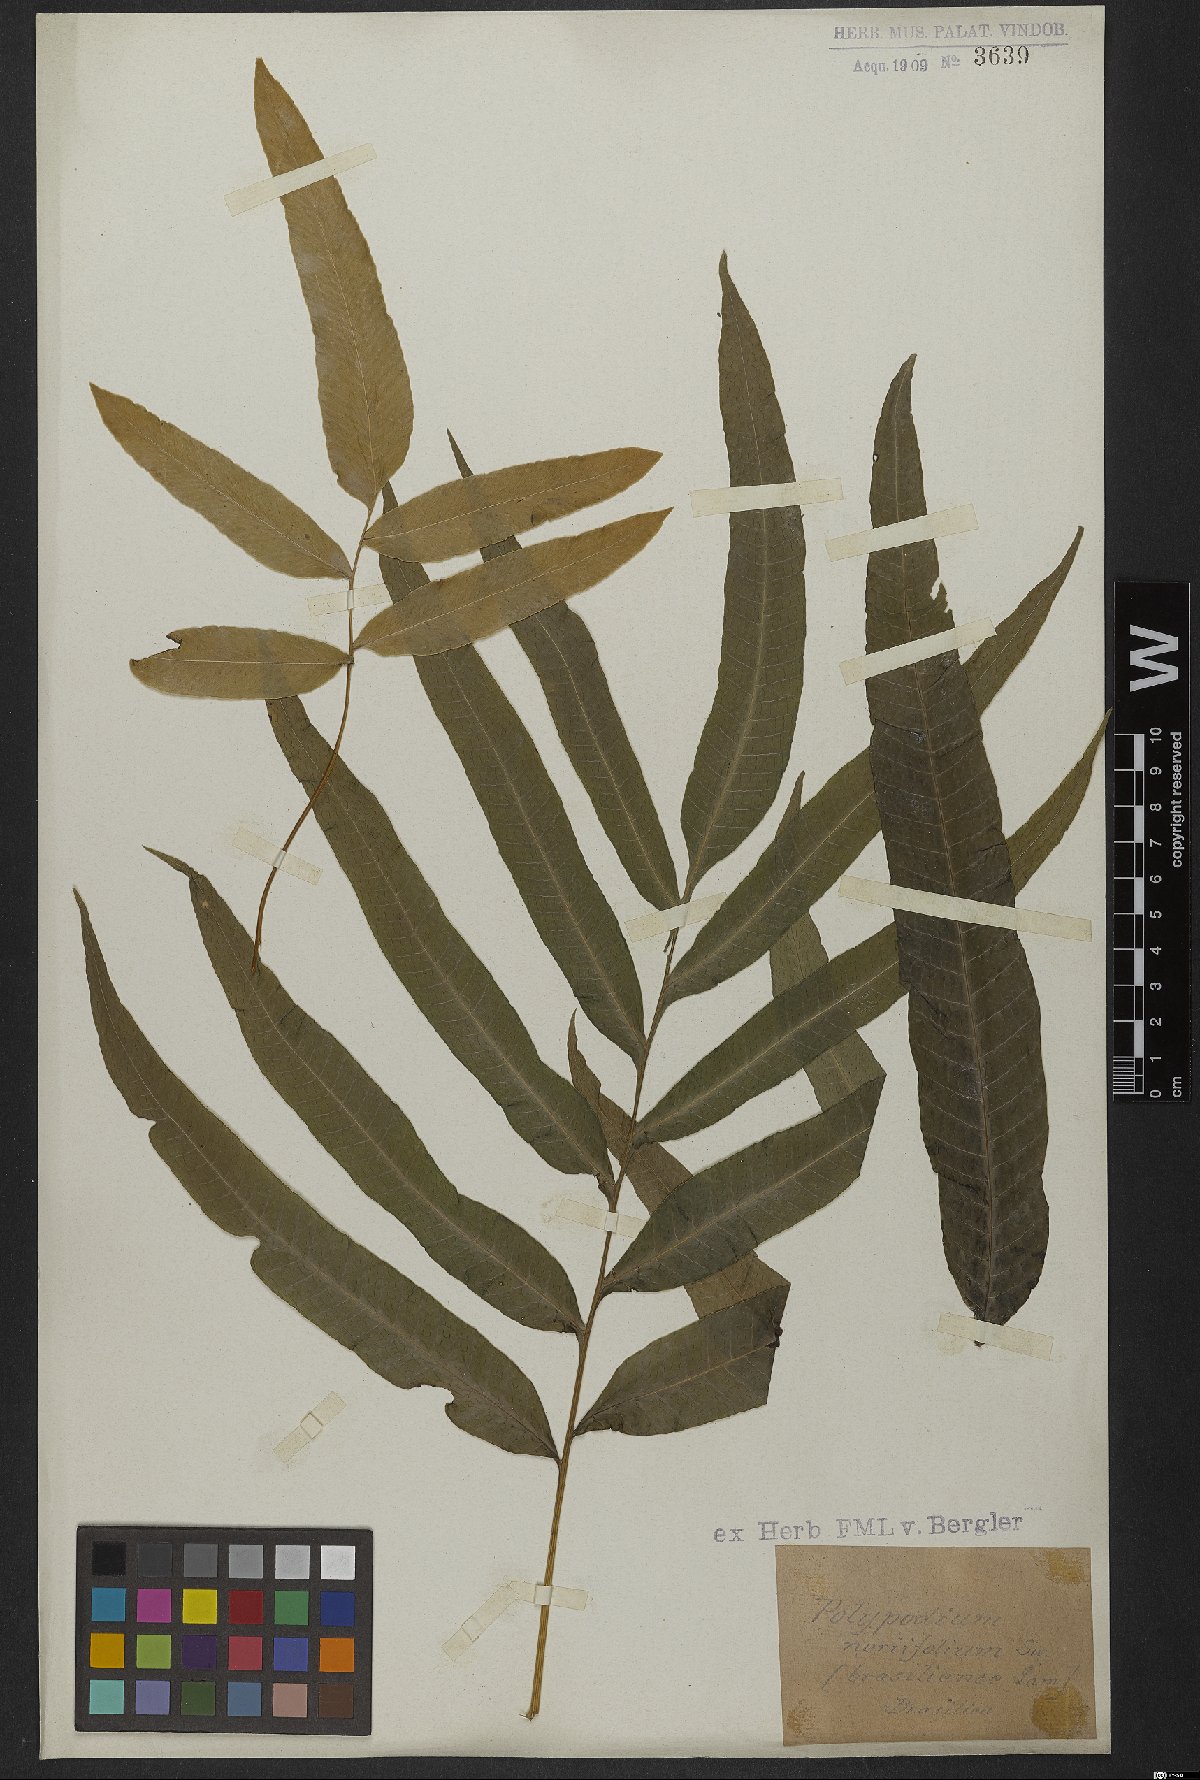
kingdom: Plantae
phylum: Tracheophyta
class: Polypodiopsida
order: Polypodiales
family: Polypodiaceae
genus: Serpocaulon
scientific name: Serpocaulon triseriale
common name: Angle-vein fern
